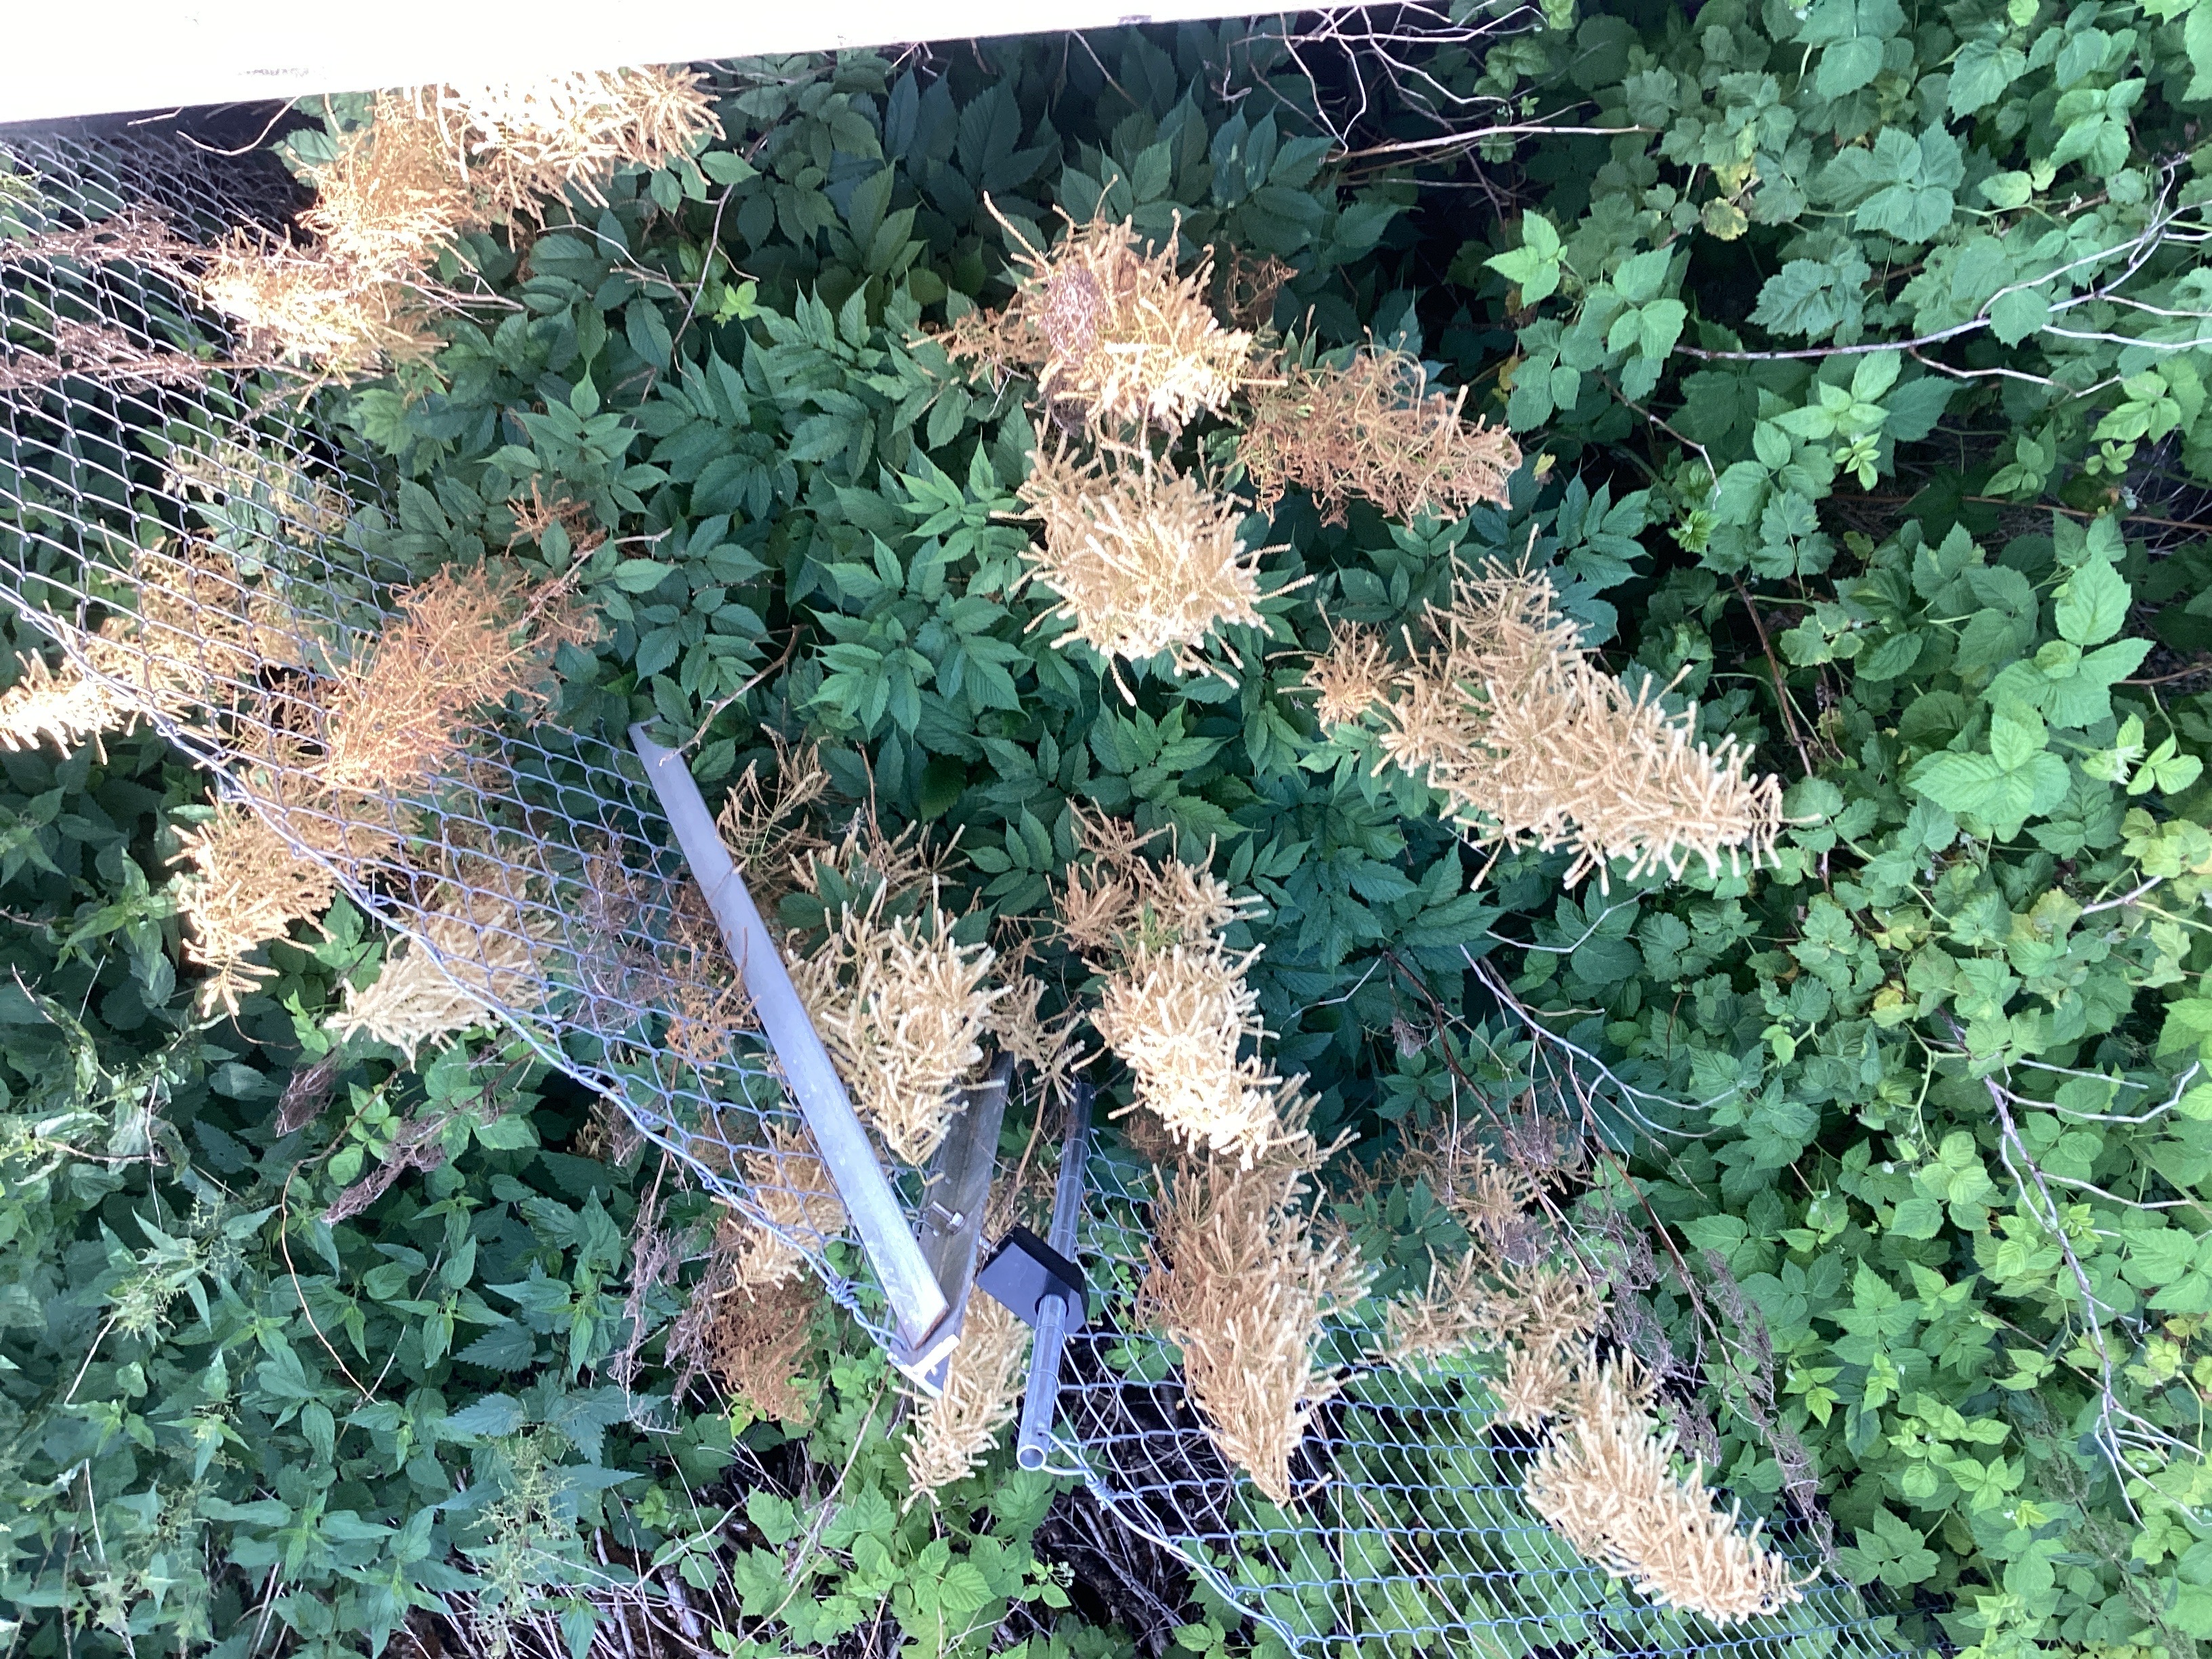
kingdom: Plantae
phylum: Tracheophyta
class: Magnoliopsida
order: Rosales
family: Rosaceae
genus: Aruncus
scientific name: Aruncus dioicus
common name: skogskjegg
